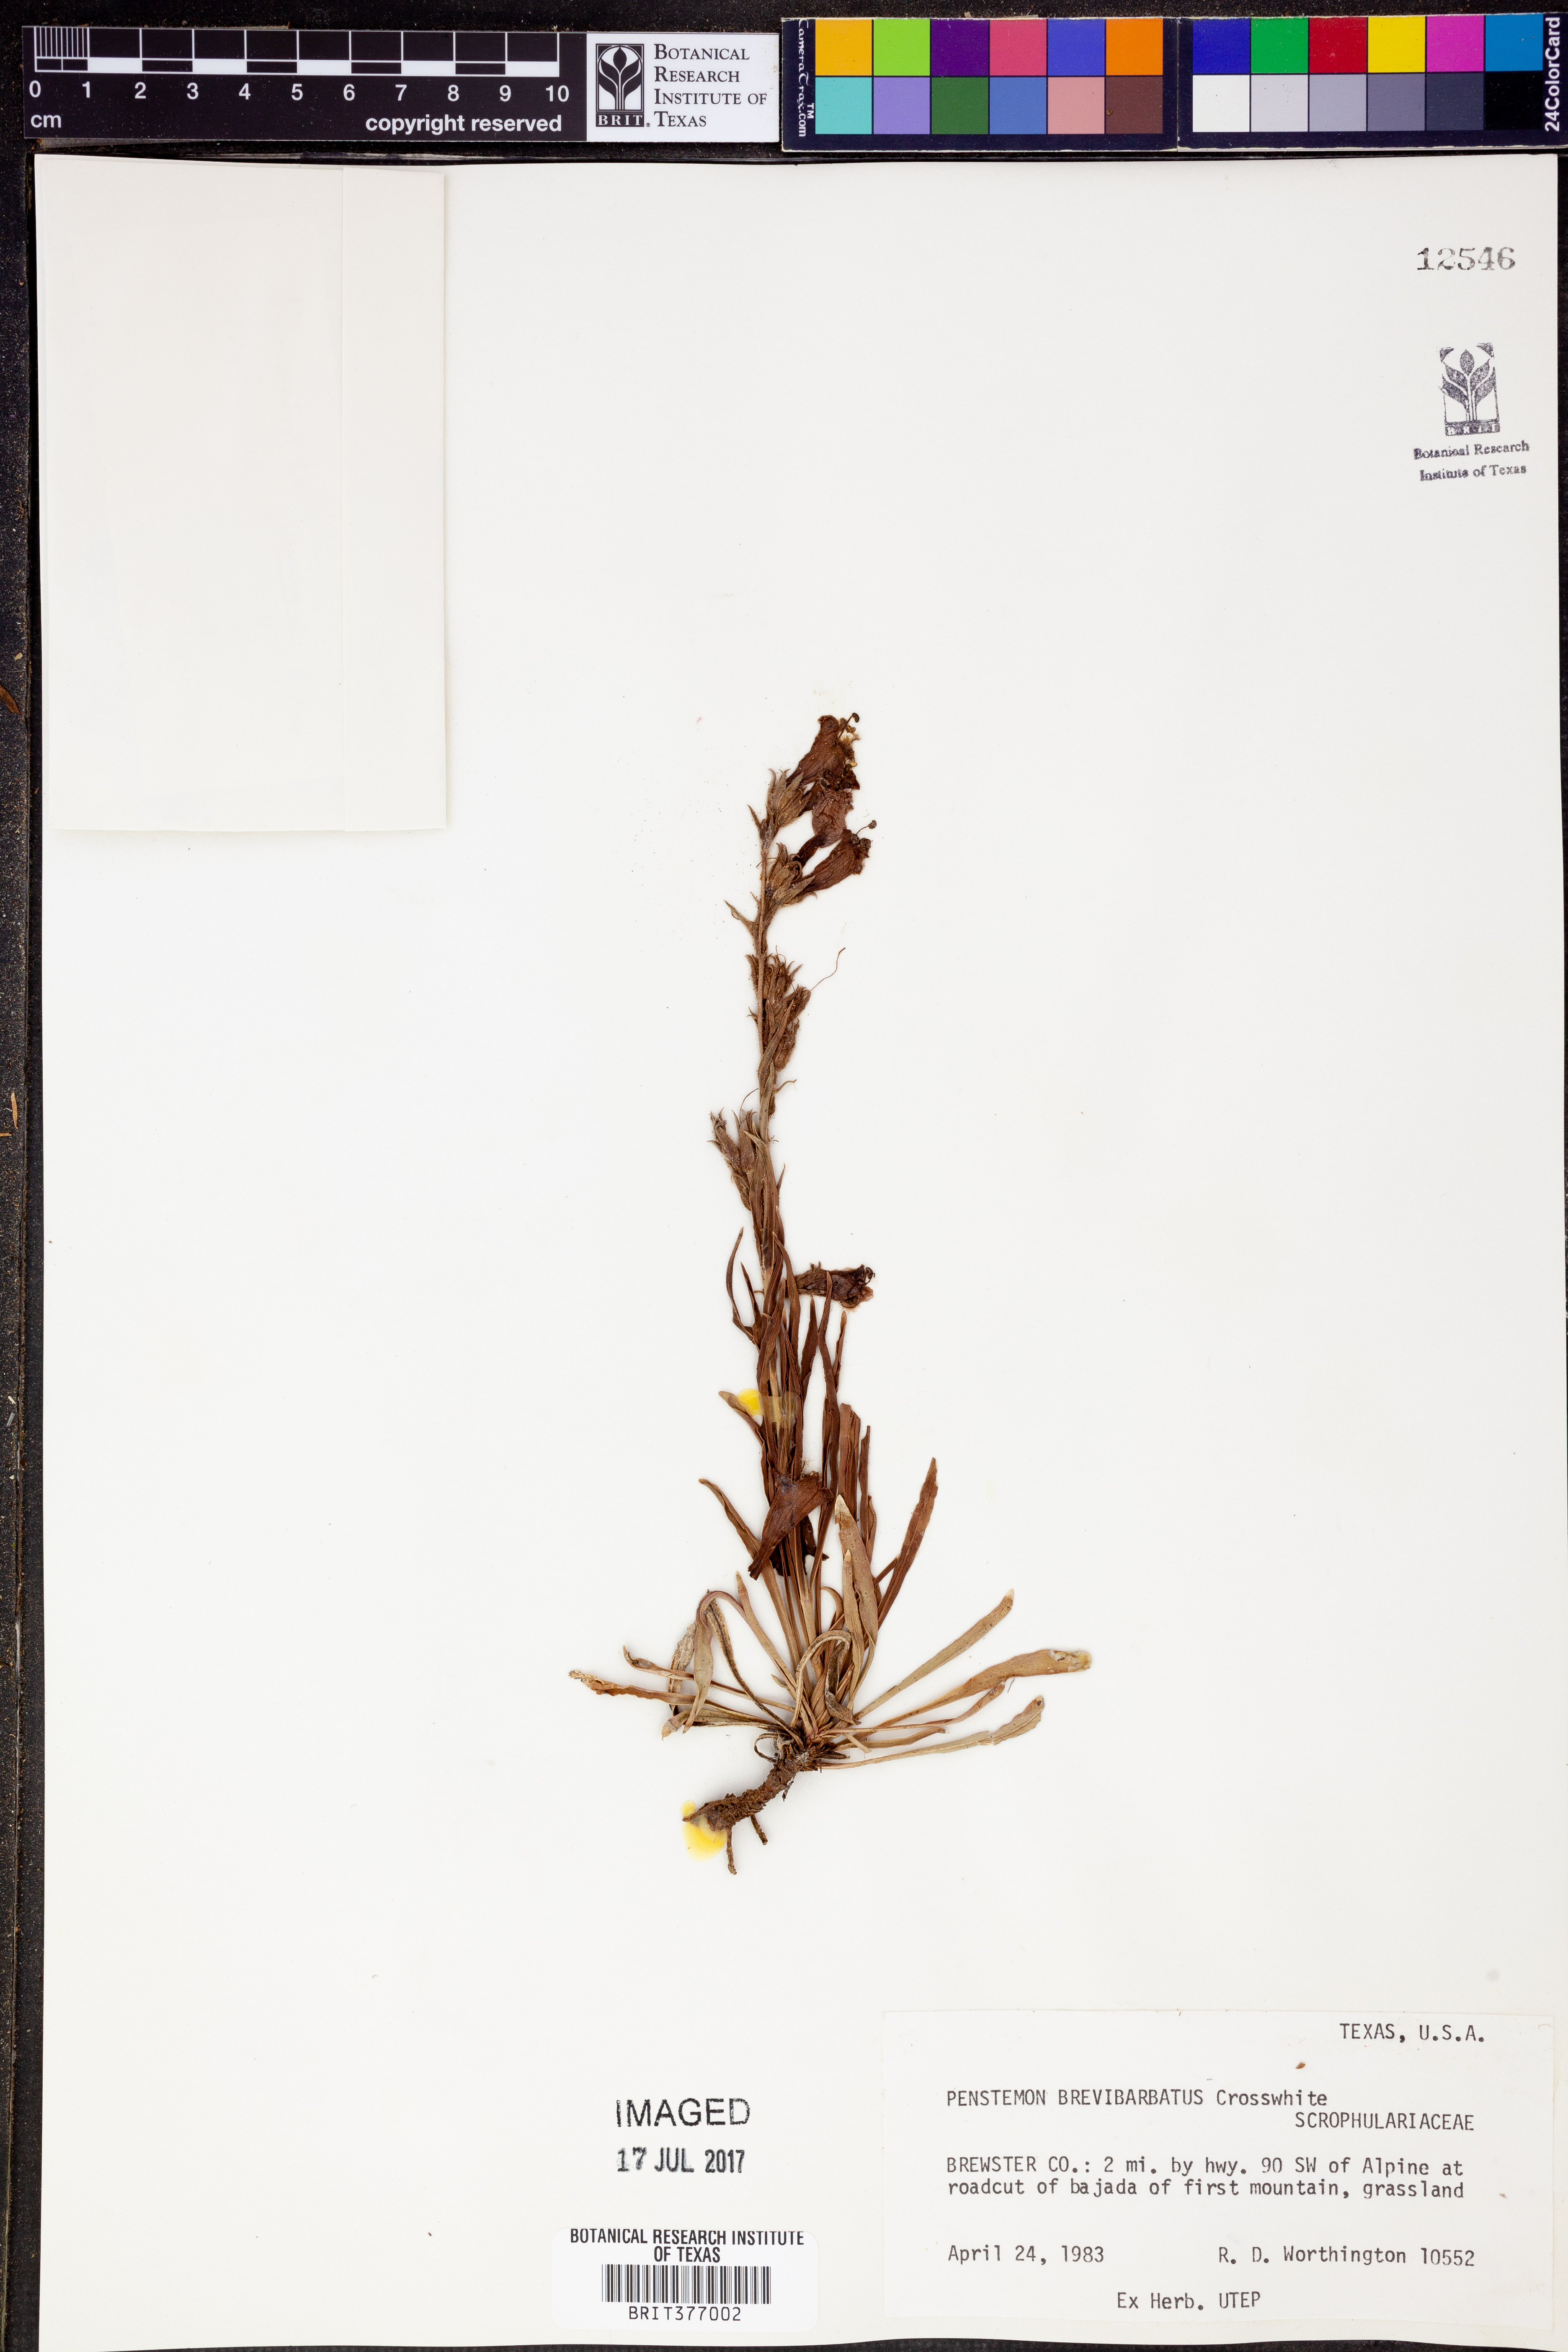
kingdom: Plantae
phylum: Tracheophyta
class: Magnoliopsida
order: Lamiales
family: Plantaginaceae
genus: Penstemon
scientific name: Penstemon brevibarbatus
